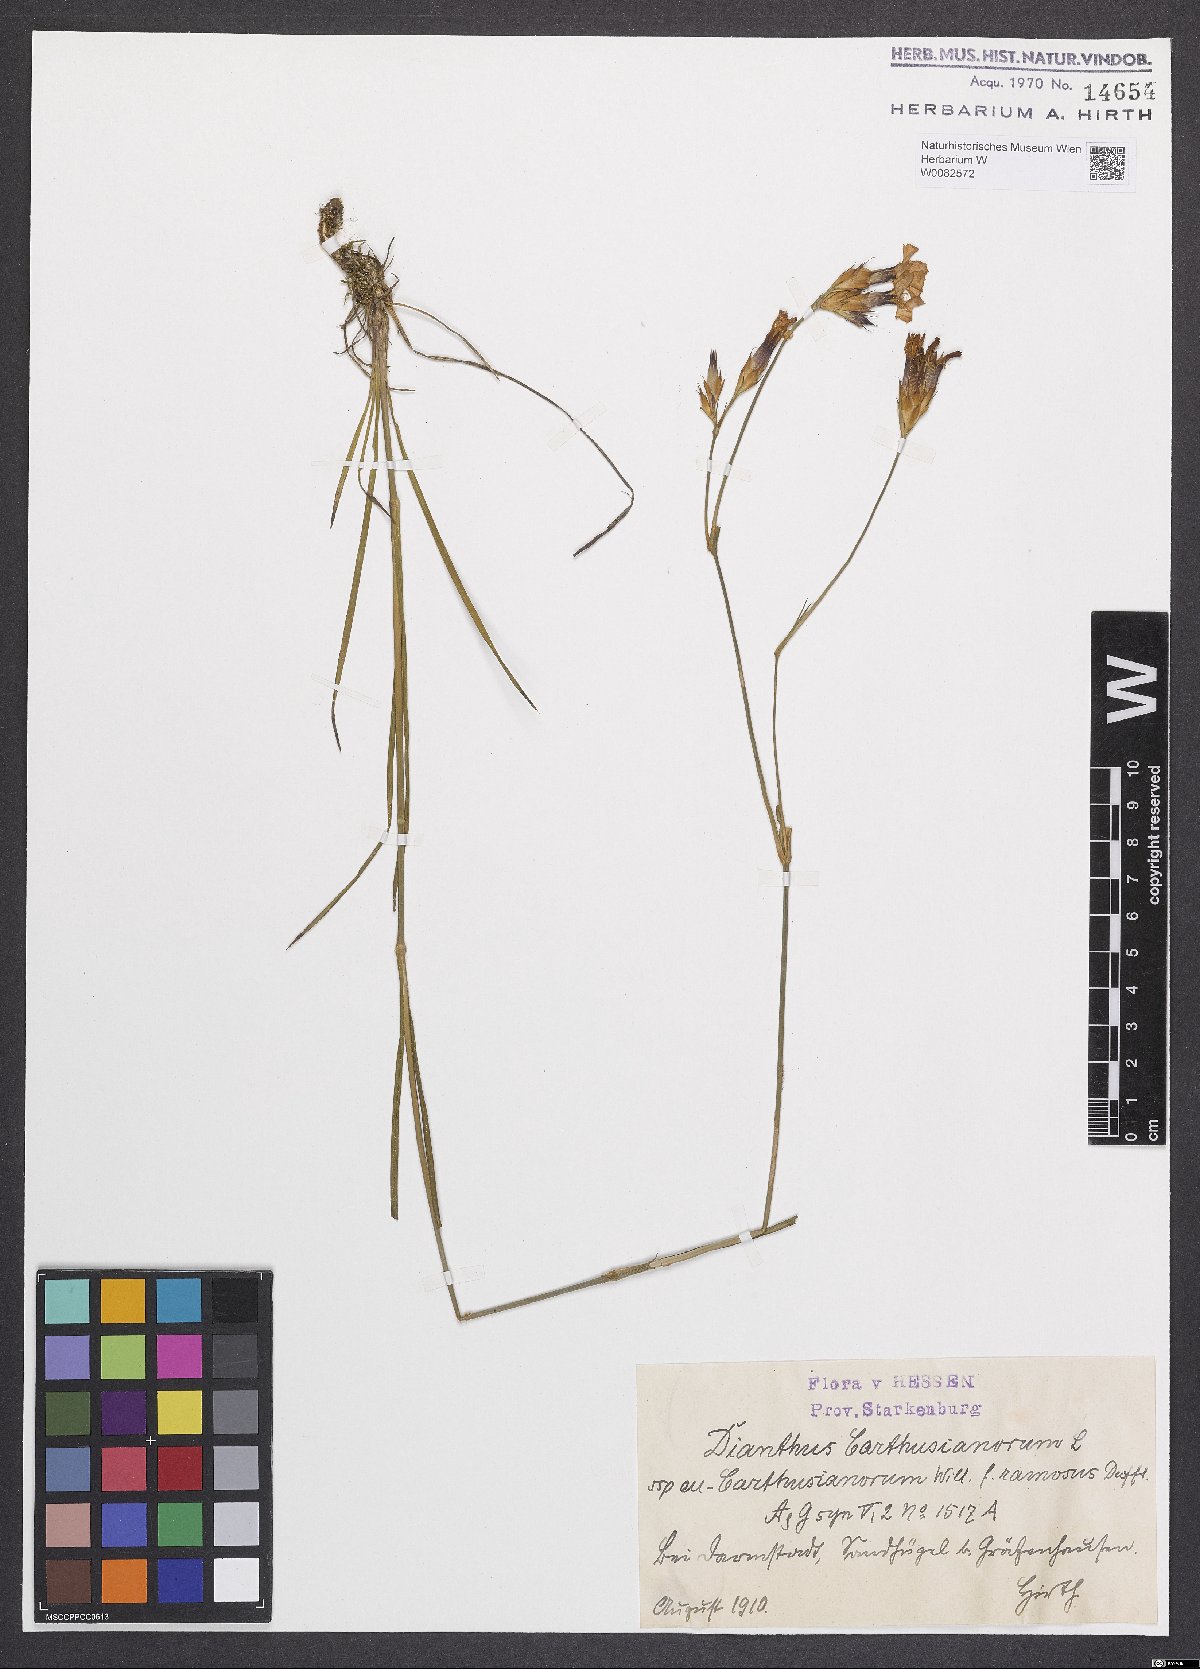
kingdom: Plantae
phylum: Tracheophyta
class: Magnoliopsida
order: Caryophyllales
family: Caryophyllaceae
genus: Dianthus
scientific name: Dianthus carthusianorum
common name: Carthusian pink
